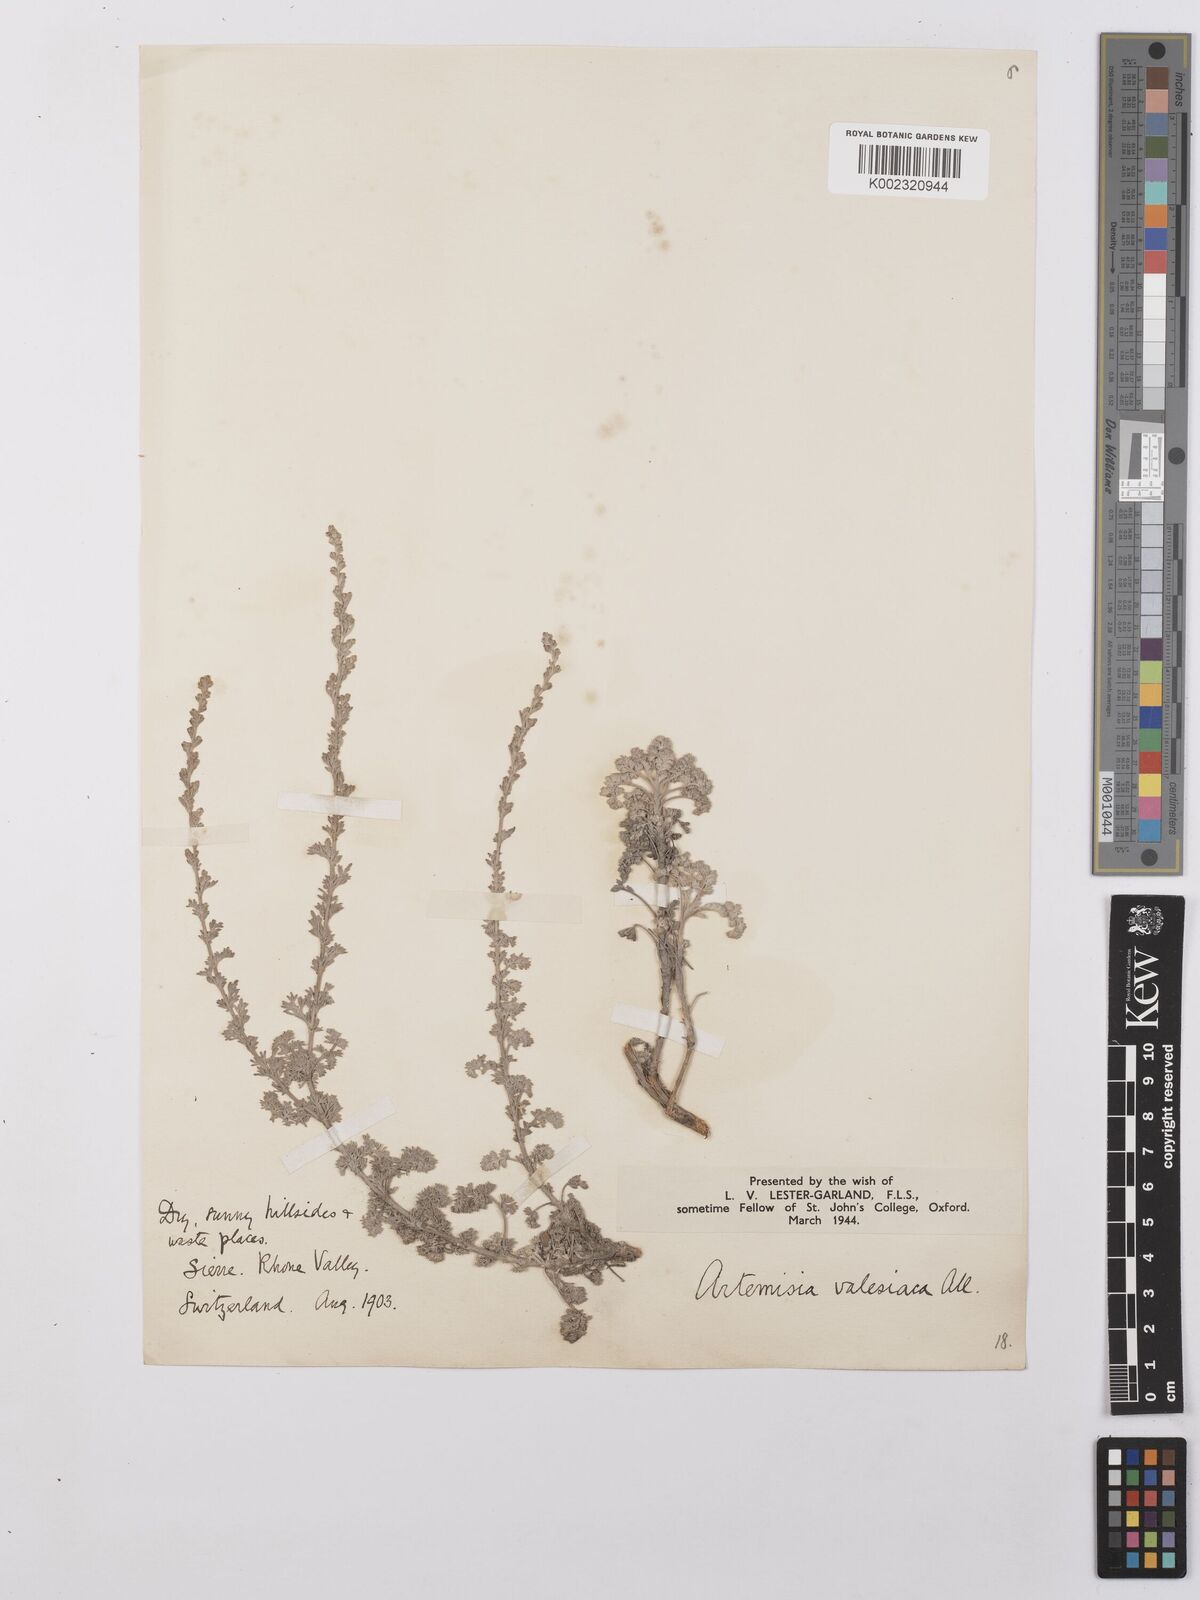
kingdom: Plantae
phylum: Tracheophyta
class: Magnoliopsida
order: Asterales
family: Asteraceae
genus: Artemisia
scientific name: Artemisia vallesiaca
